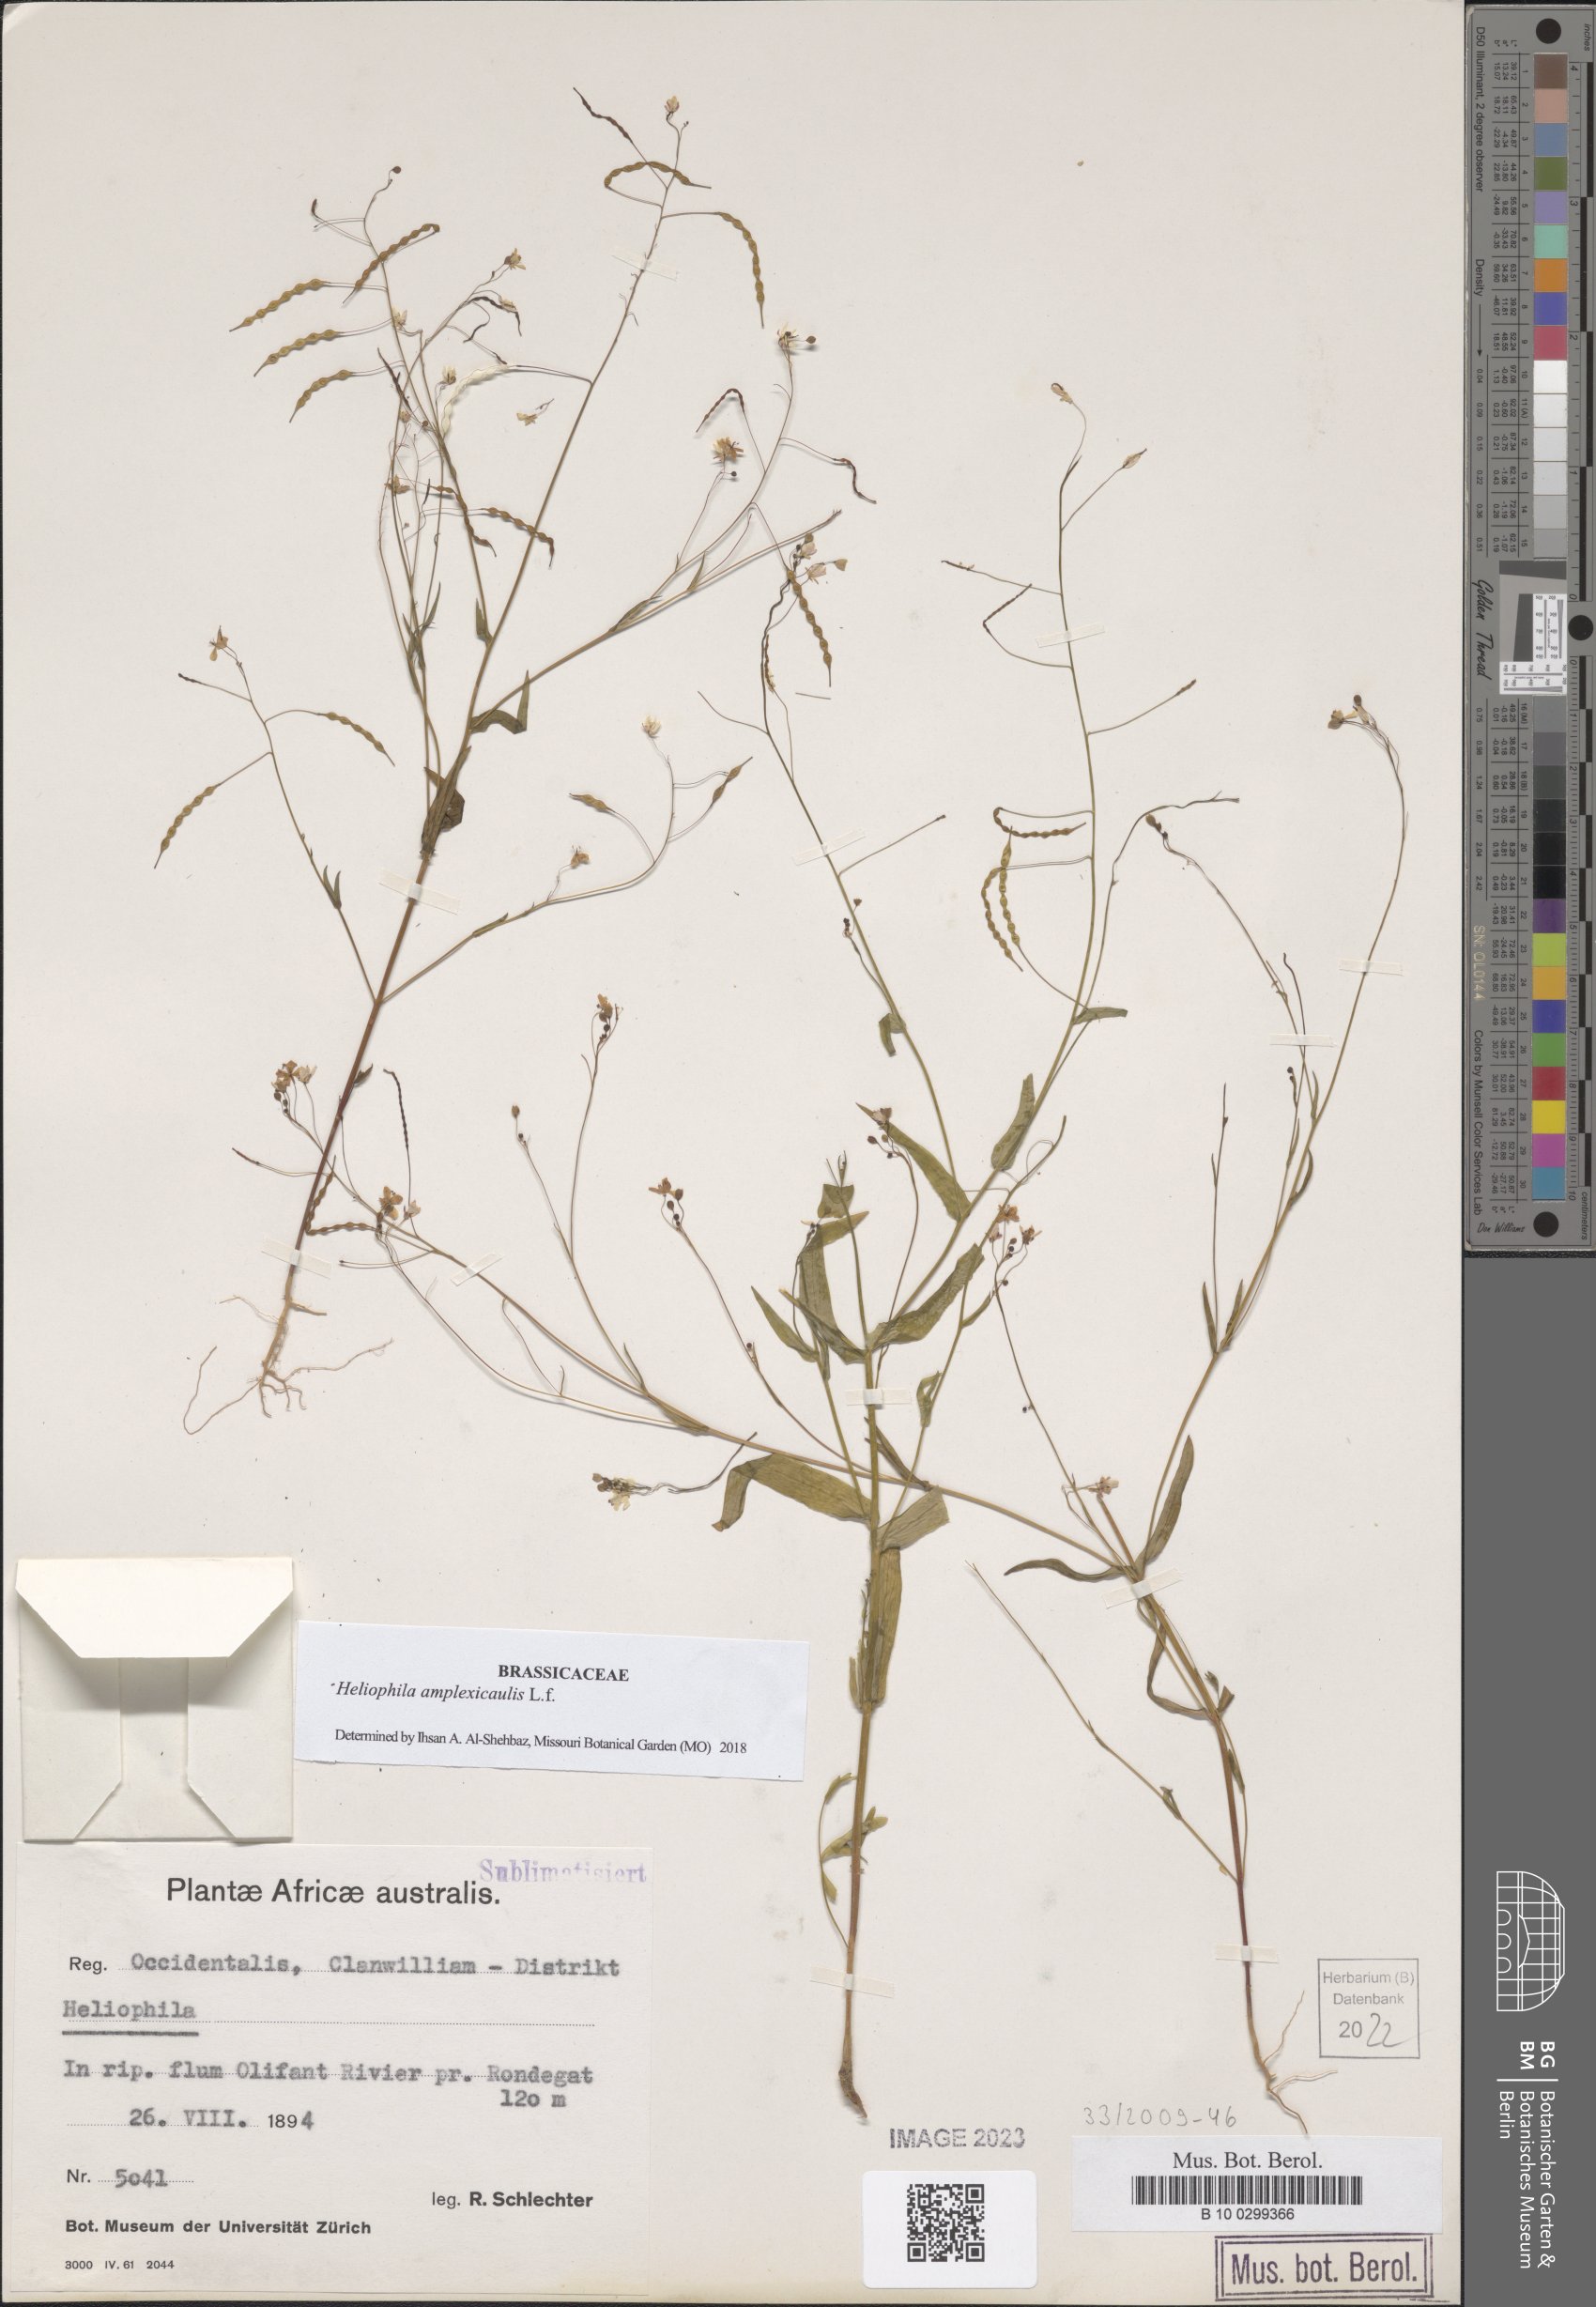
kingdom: Plantae
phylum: Tracheophyta
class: Magnoliopsida
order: Brassicales
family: Brassicaceae
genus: Heliophila
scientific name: Heliophila amplexicaulis
